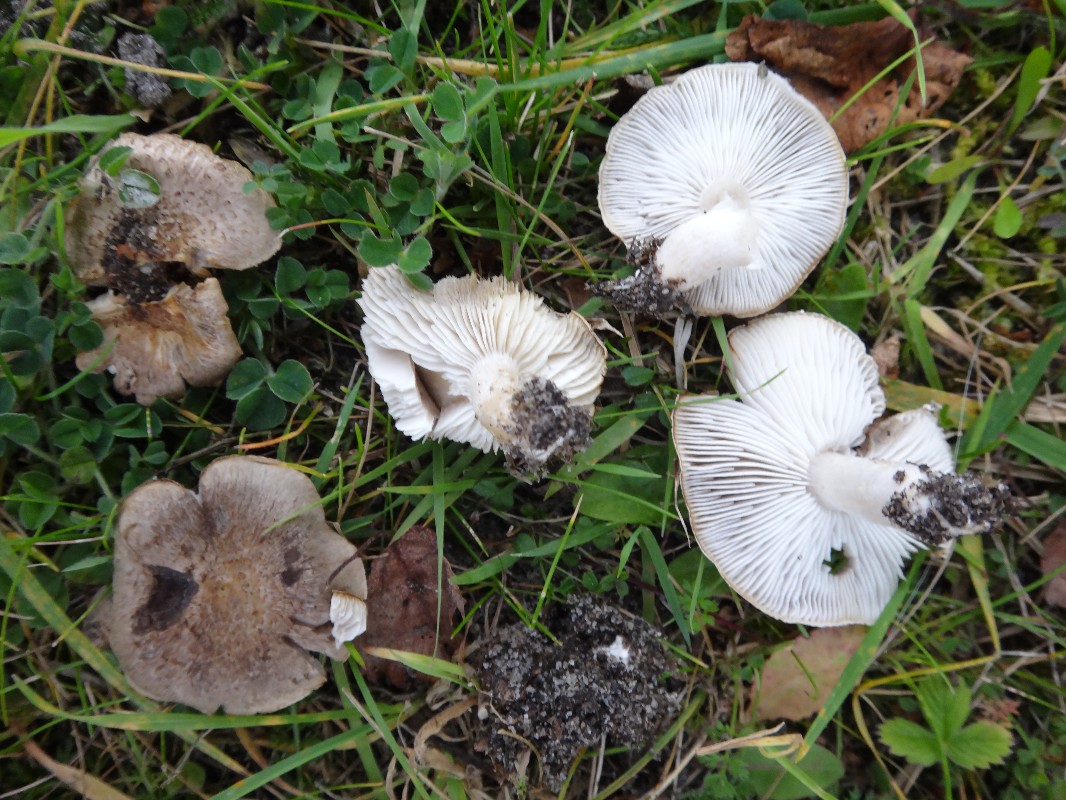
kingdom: Fungi
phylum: Basidiomycota
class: Agaricomycetes
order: Agaricales
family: Tricholomataceae
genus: Tricholoma
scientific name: Tricholoma argyraceum
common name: spids ridderhat
